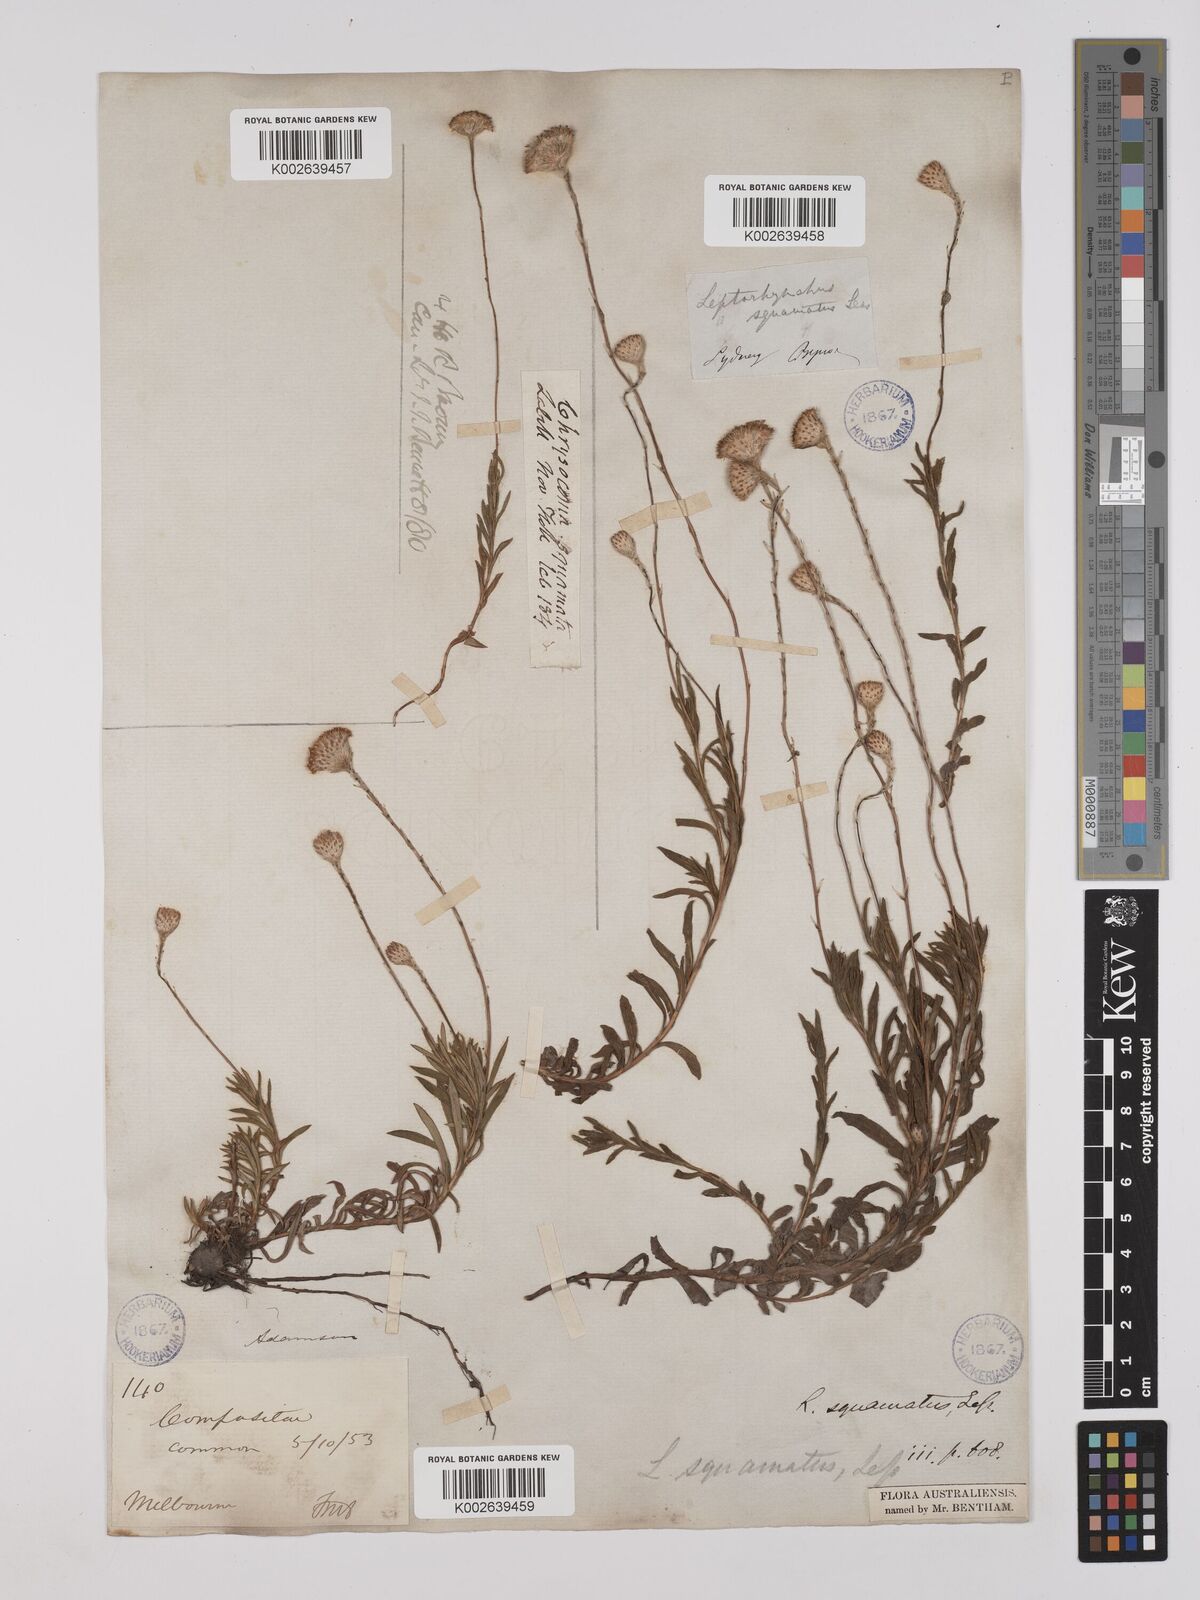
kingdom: Plantae
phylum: Tracheophyta
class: Magnoliopsida
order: Asterales
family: Asteraceae
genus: Leptorhynchos
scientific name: Leptorhynchos squamatus
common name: Scaly-buttons
